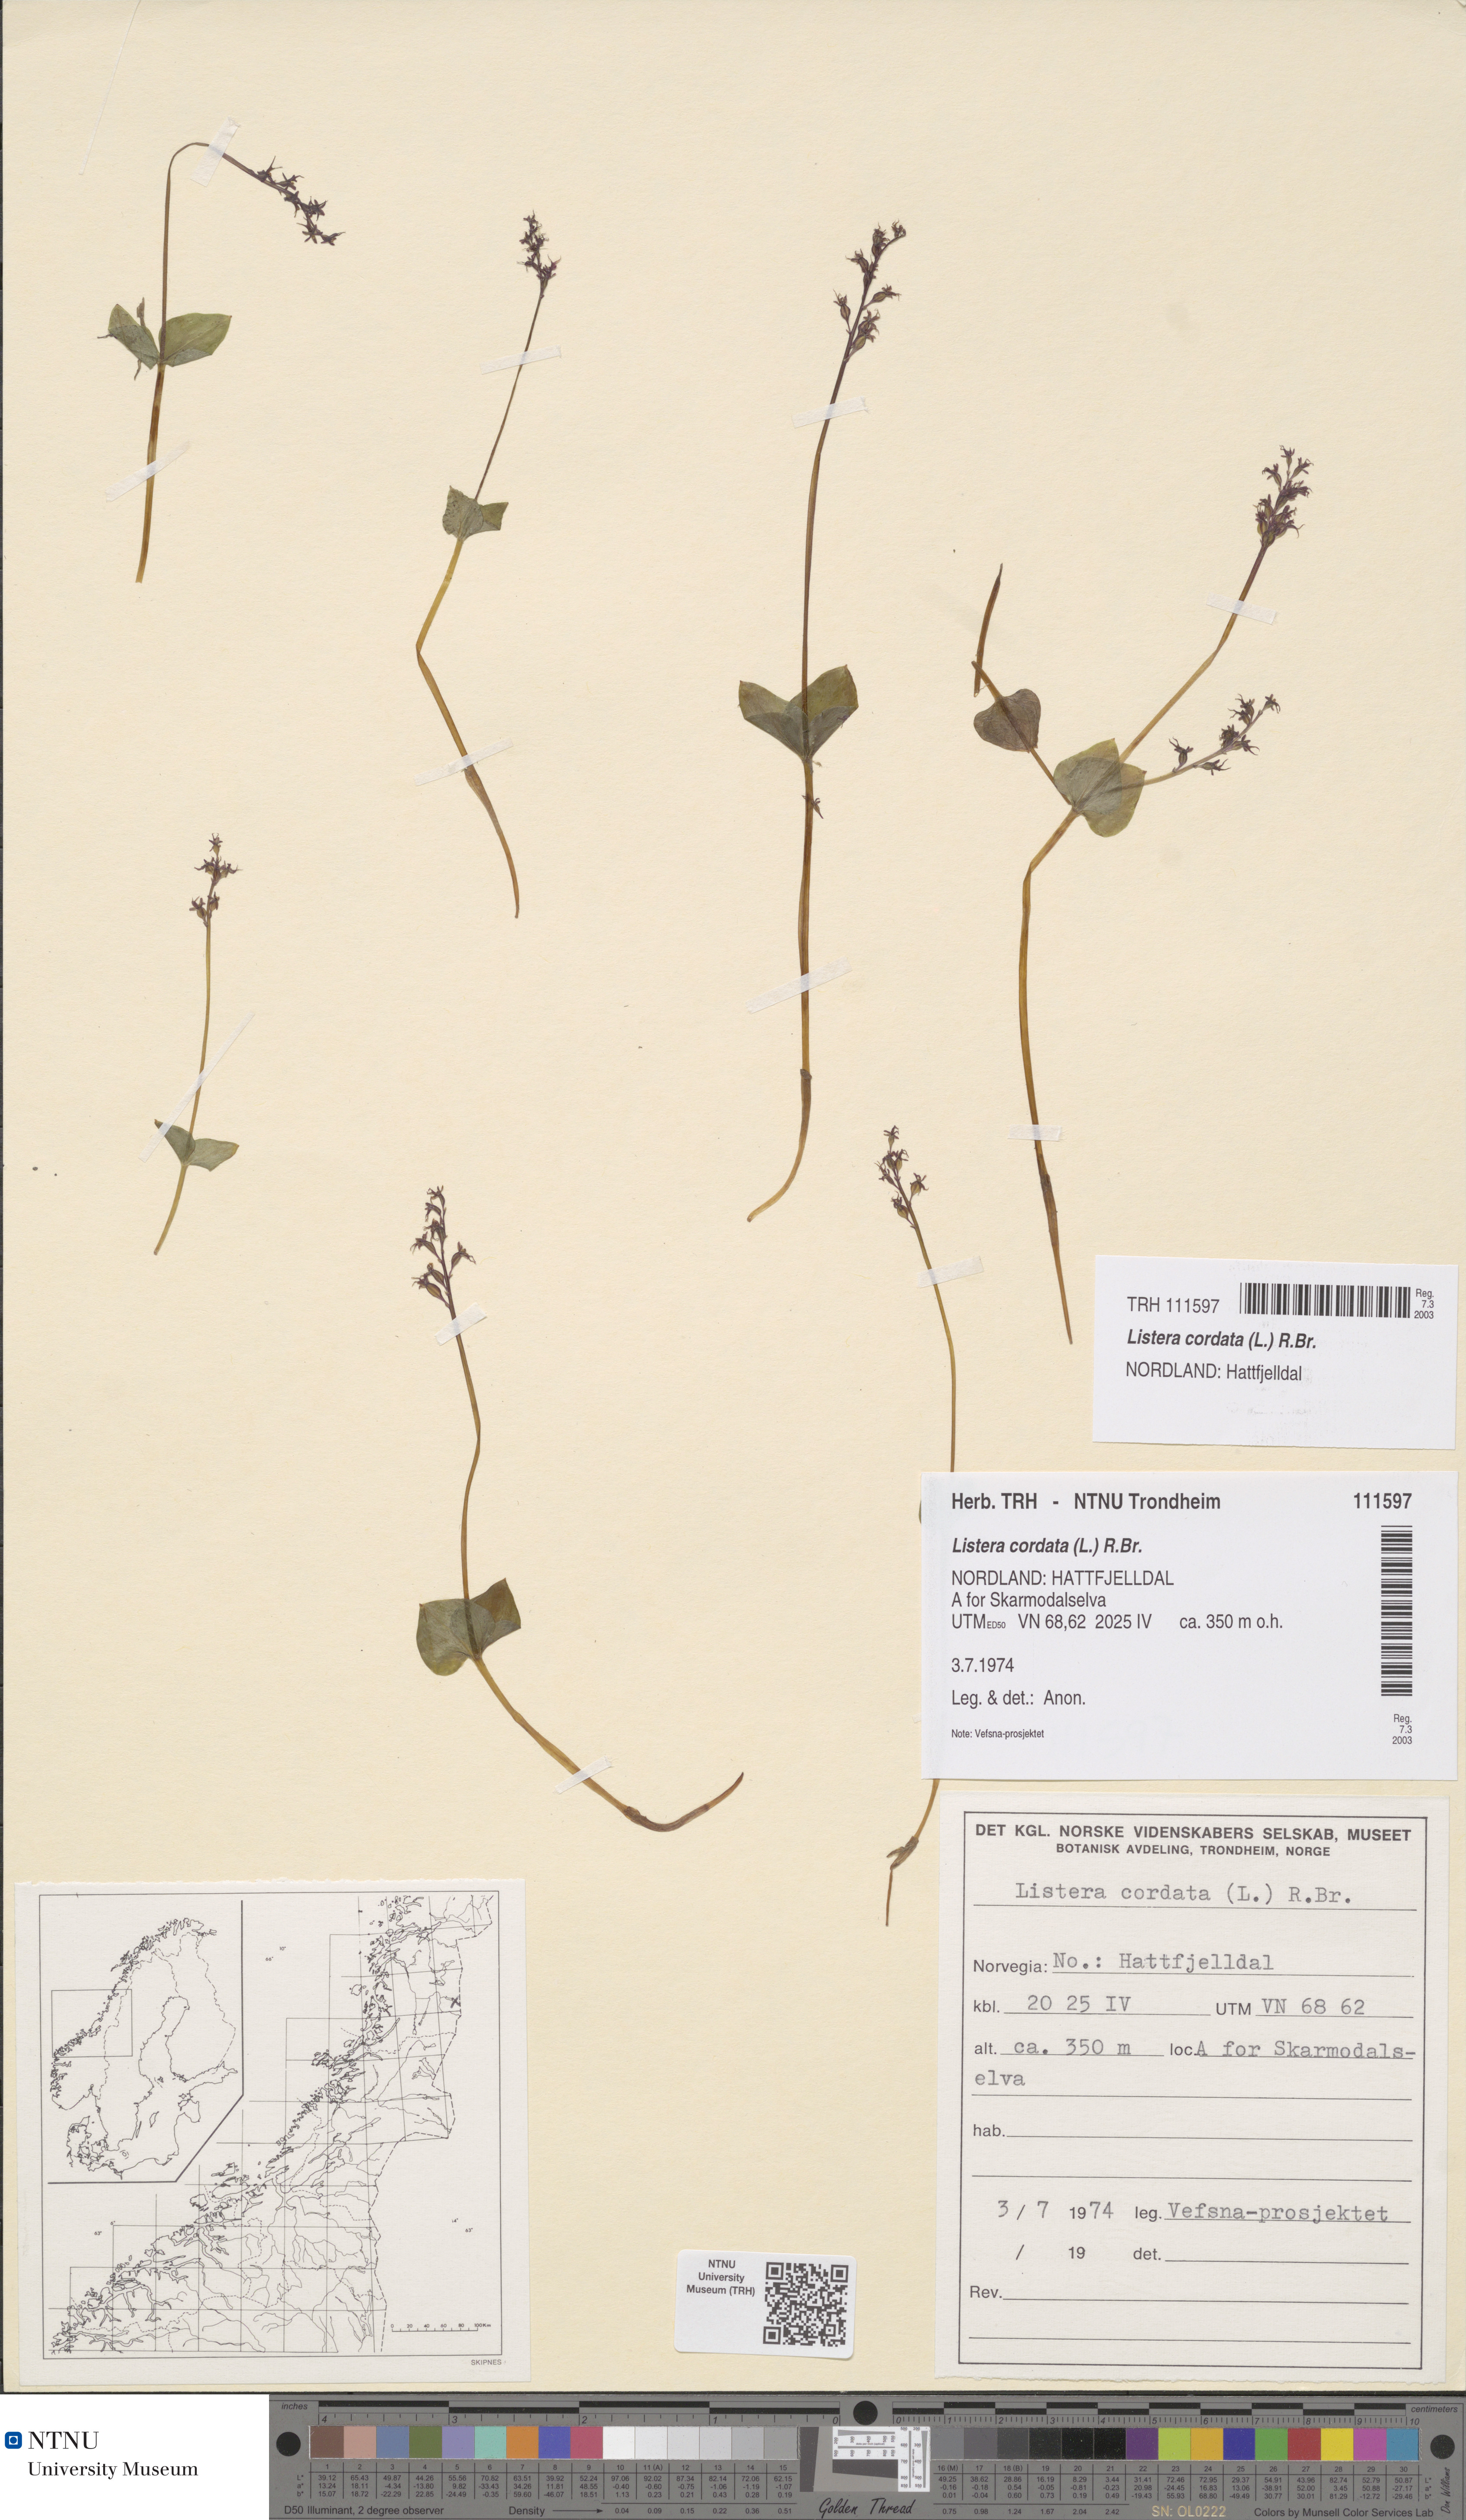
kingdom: Plantae
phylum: Tracheophyta
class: Liliopsida
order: Asparagales
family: Orchidaceae
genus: Neottia
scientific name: Neottia cordata
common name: Lesser twayblade
